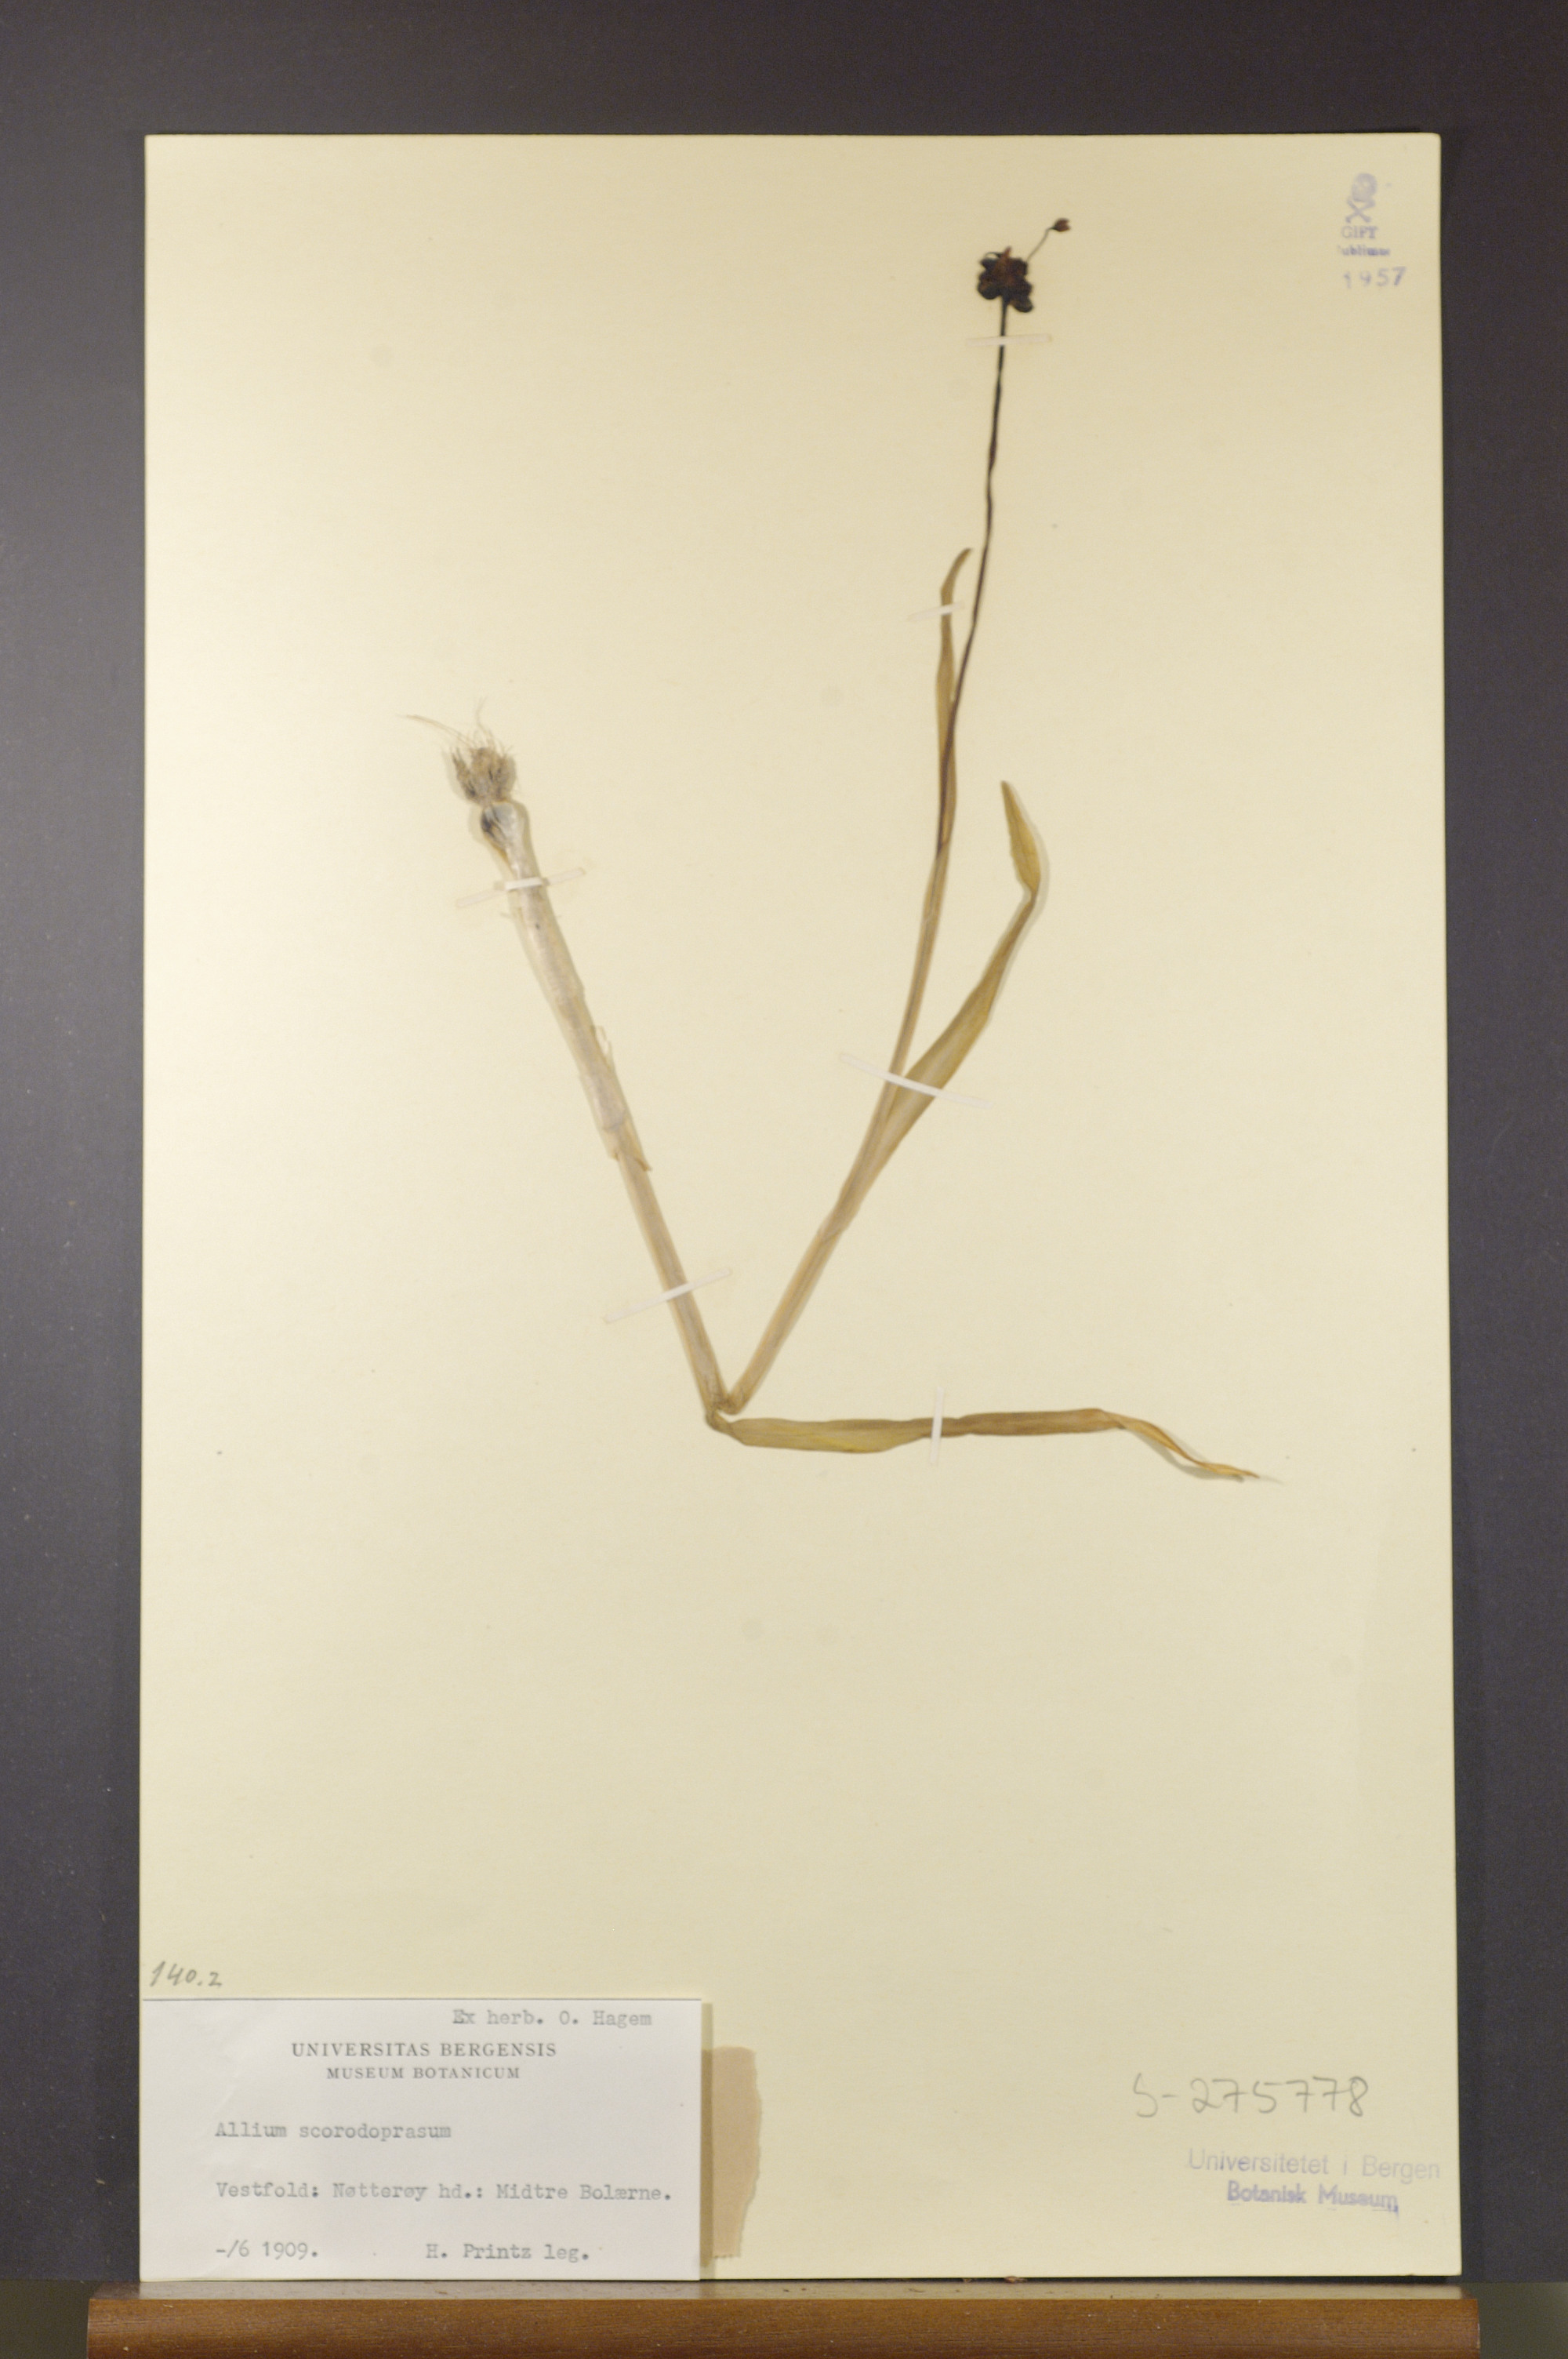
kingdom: Plantae
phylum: Tracheophyta
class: Liliopsida
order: Asparagales
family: Amaryllidaceae
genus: Allium
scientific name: Allium scorodoprasum
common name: Sand leek
